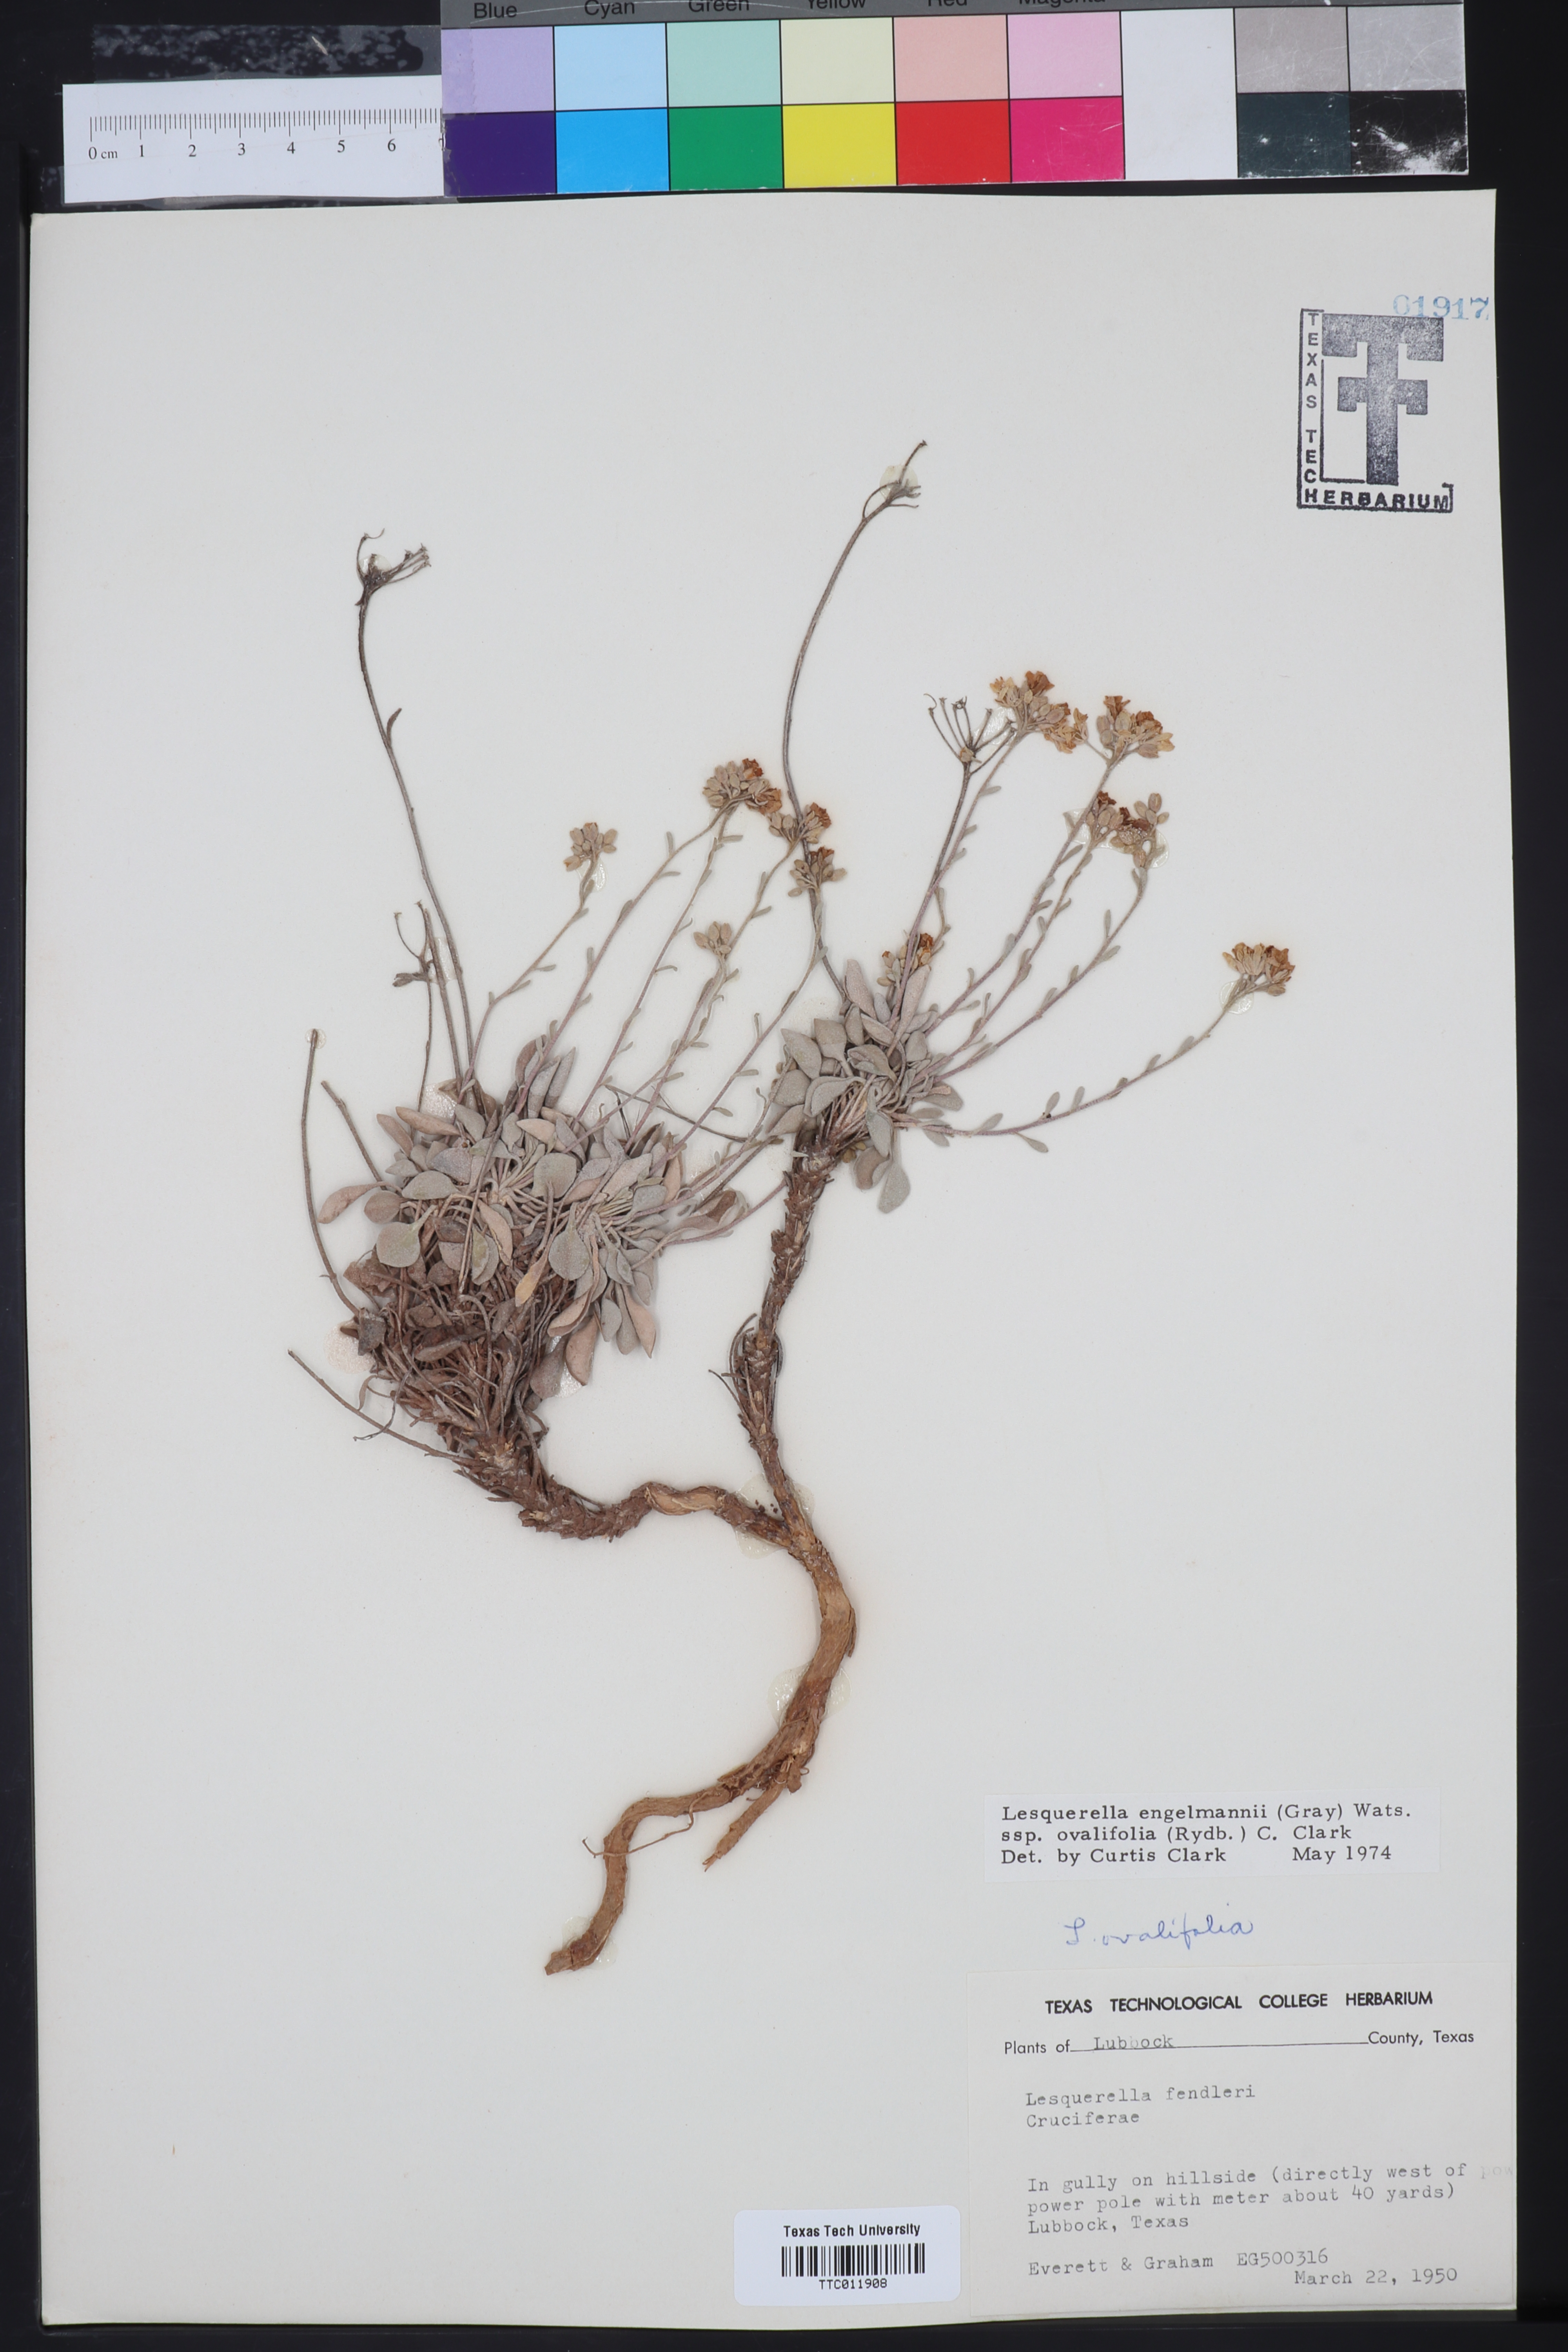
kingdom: Plantae
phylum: Tracheophyta
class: Magnoliopsida
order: Brassicales
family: Brassicaceae
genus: Physaria
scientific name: Physaria ovalifolia
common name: Round-leaf bladderpod
